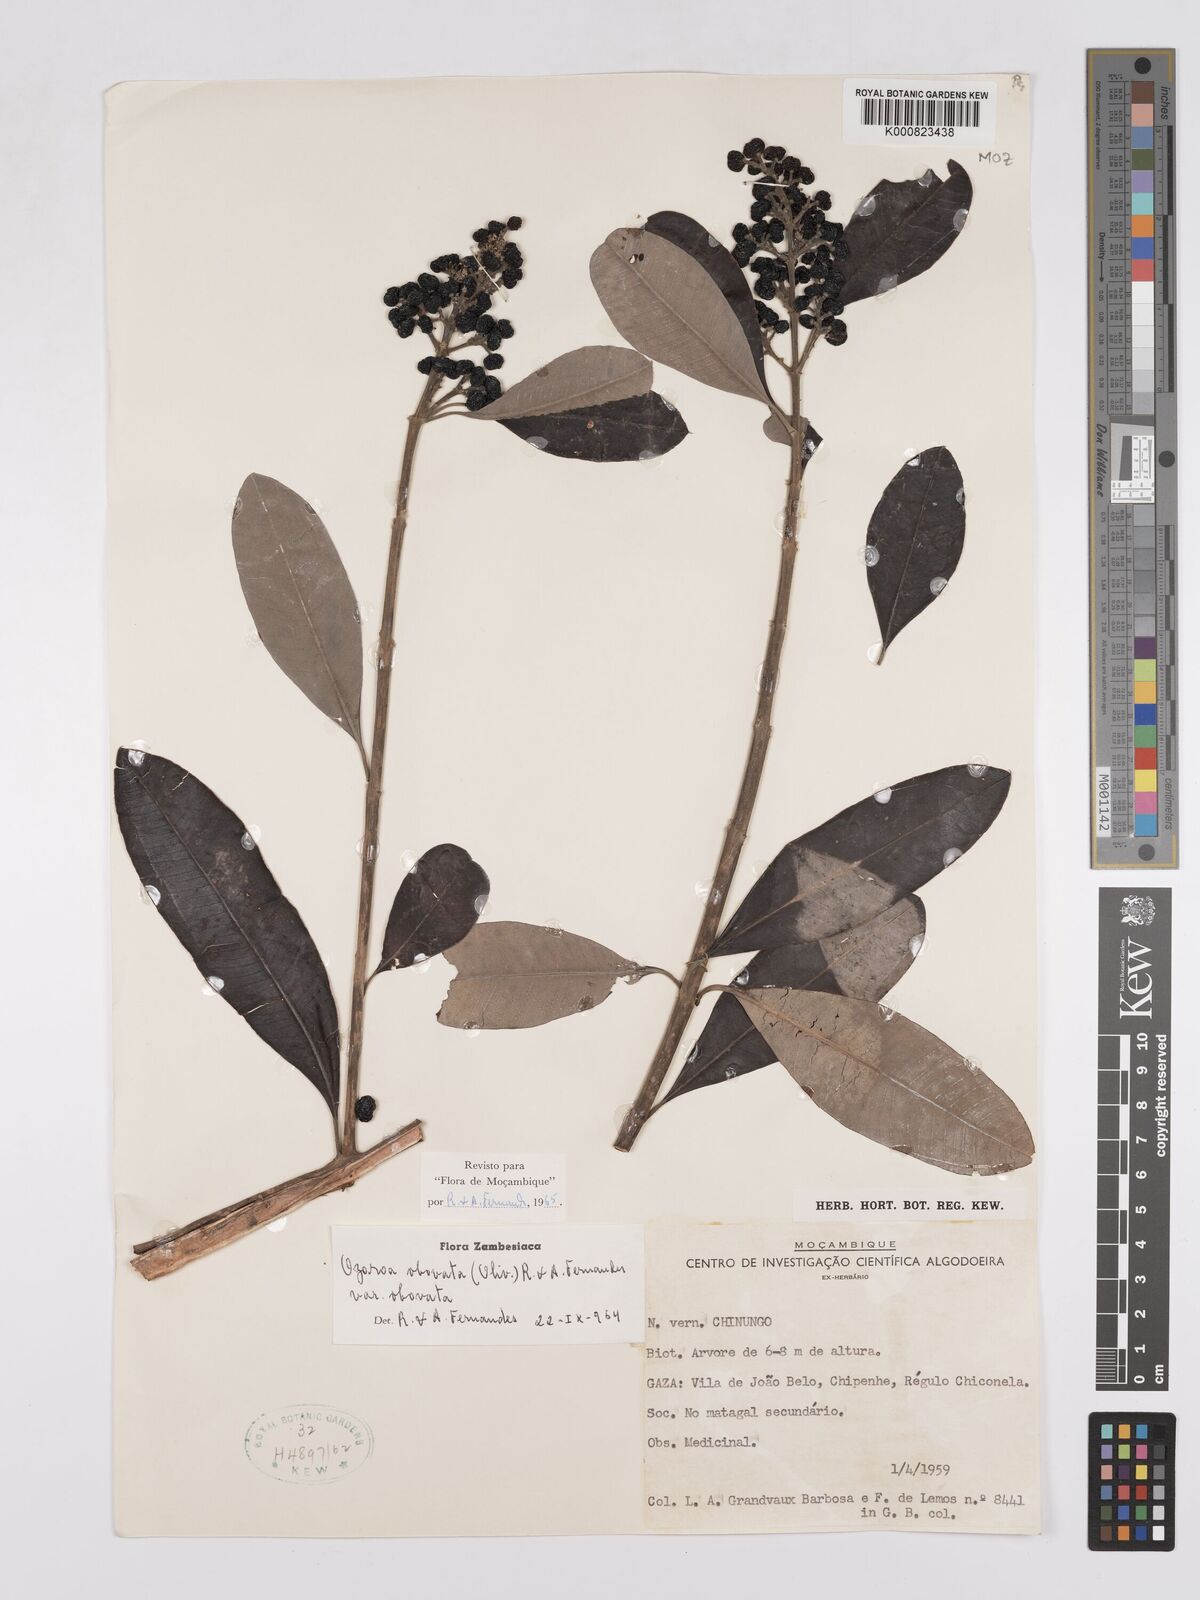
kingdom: Plantae
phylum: Tracheophyta
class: Magnoliopsida
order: Sapindales
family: Anacardiaceae
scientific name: Anacardiaceae
